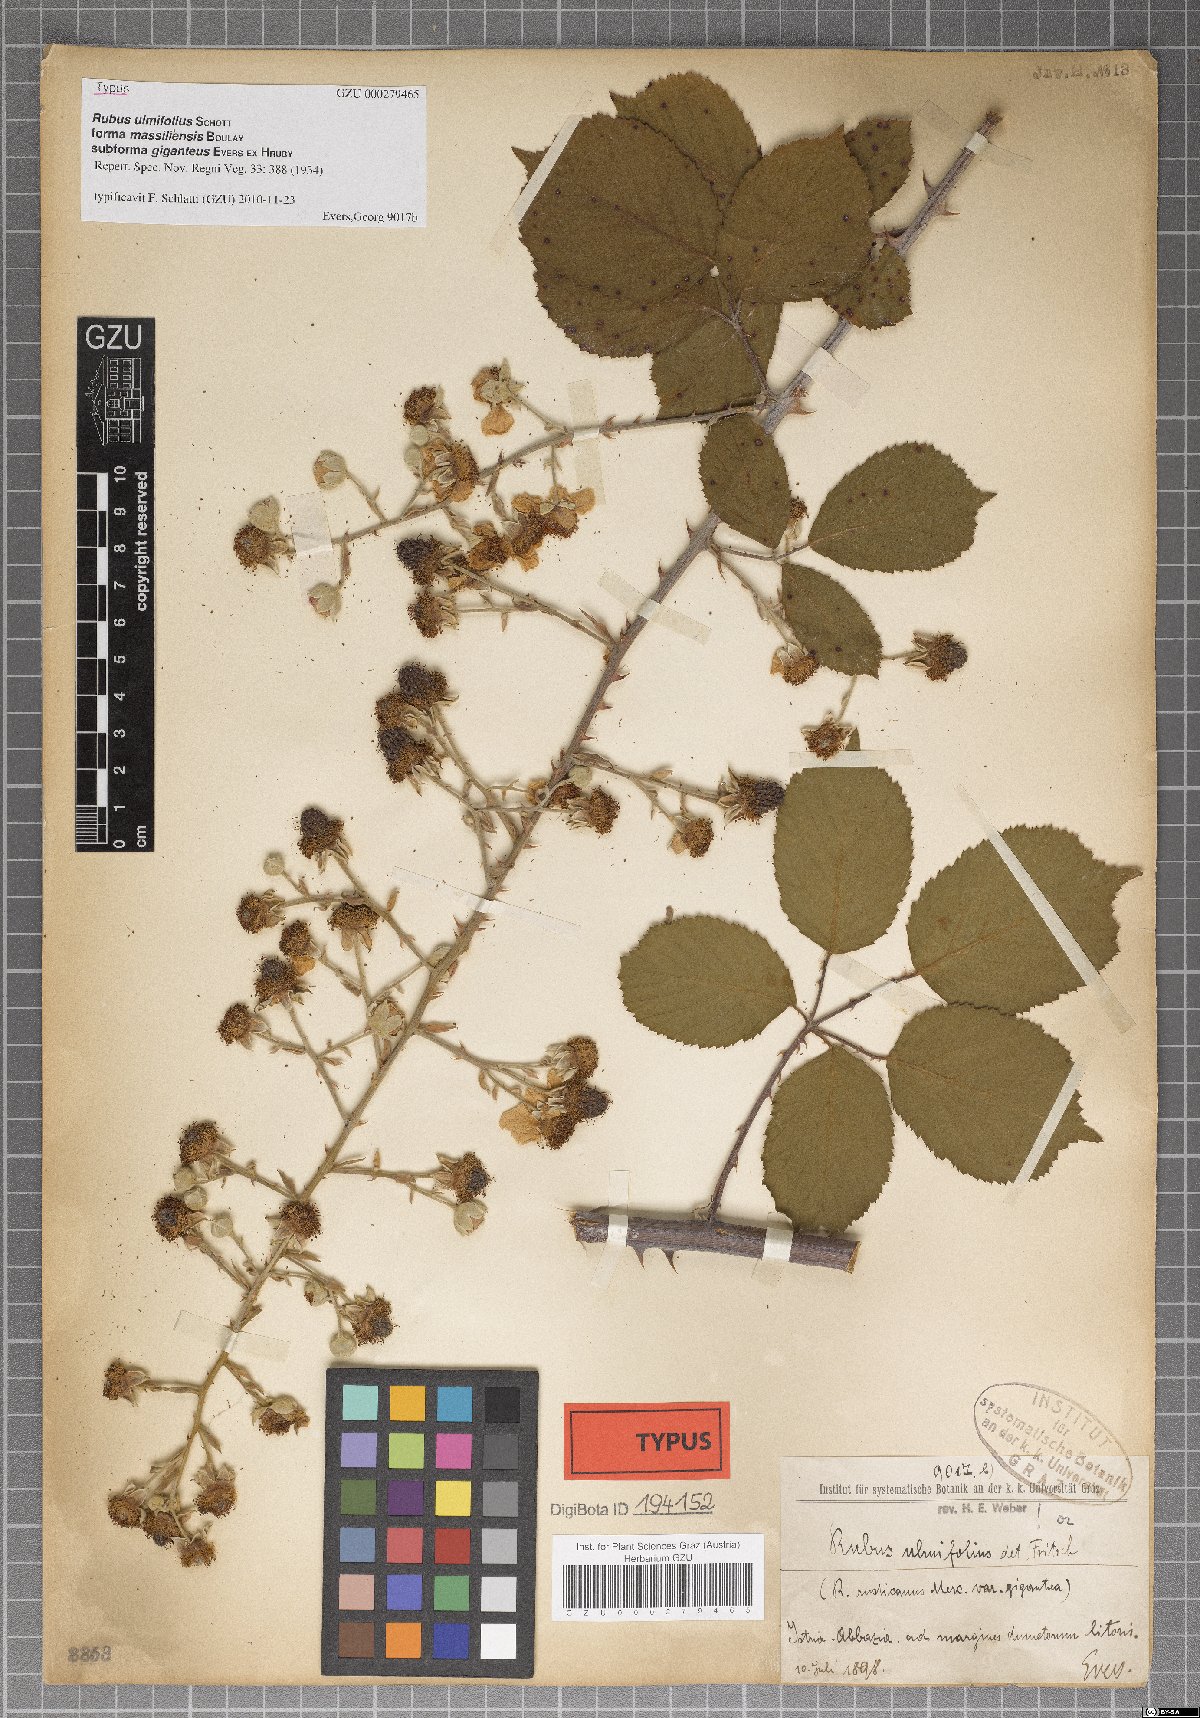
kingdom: Plantae
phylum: Tracheophyta
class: Magnoliopsida
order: Rosales
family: Rosaceae
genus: Rubus
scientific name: Rubus ulmifolius
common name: Elmleaf blackberry
